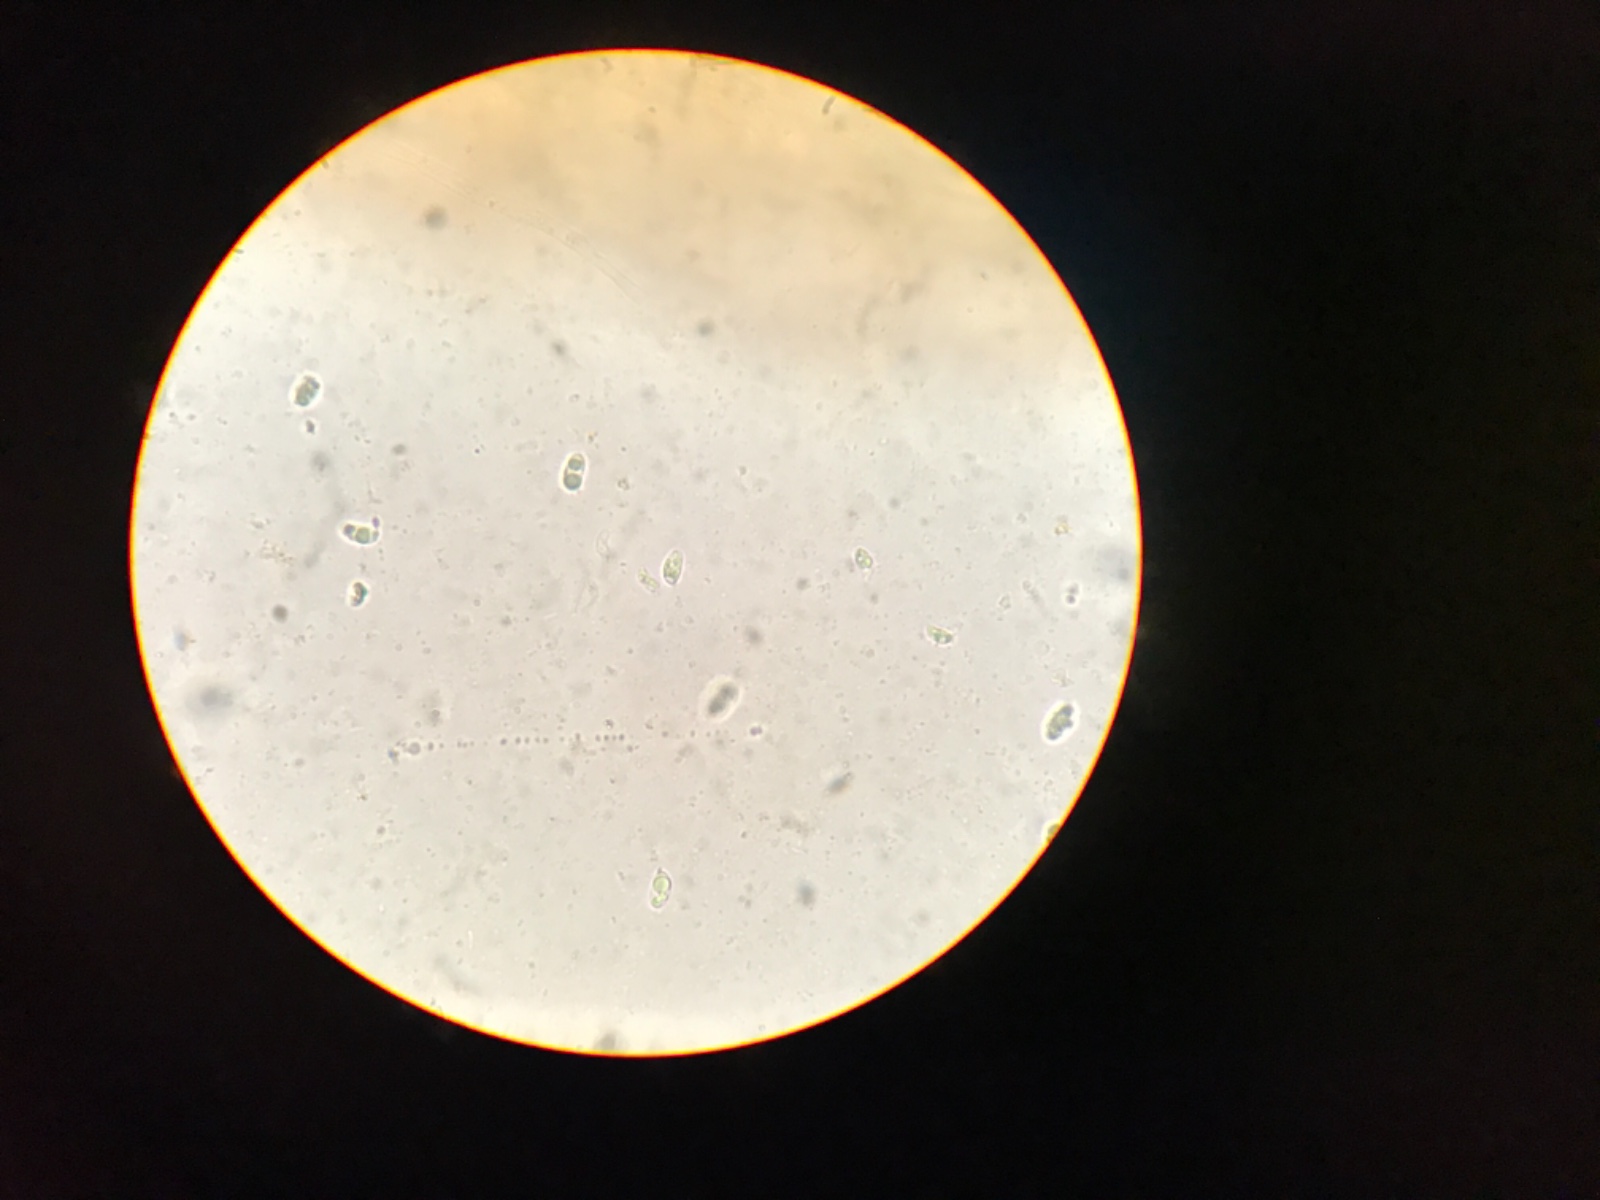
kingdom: Fungi
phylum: Basidiomycota
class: Agaricomycetes
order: Agaricales
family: Clavariaceae
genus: Clavulinopsis
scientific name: Clavulinopsis luteoalba
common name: abrikos-køllesvamp
